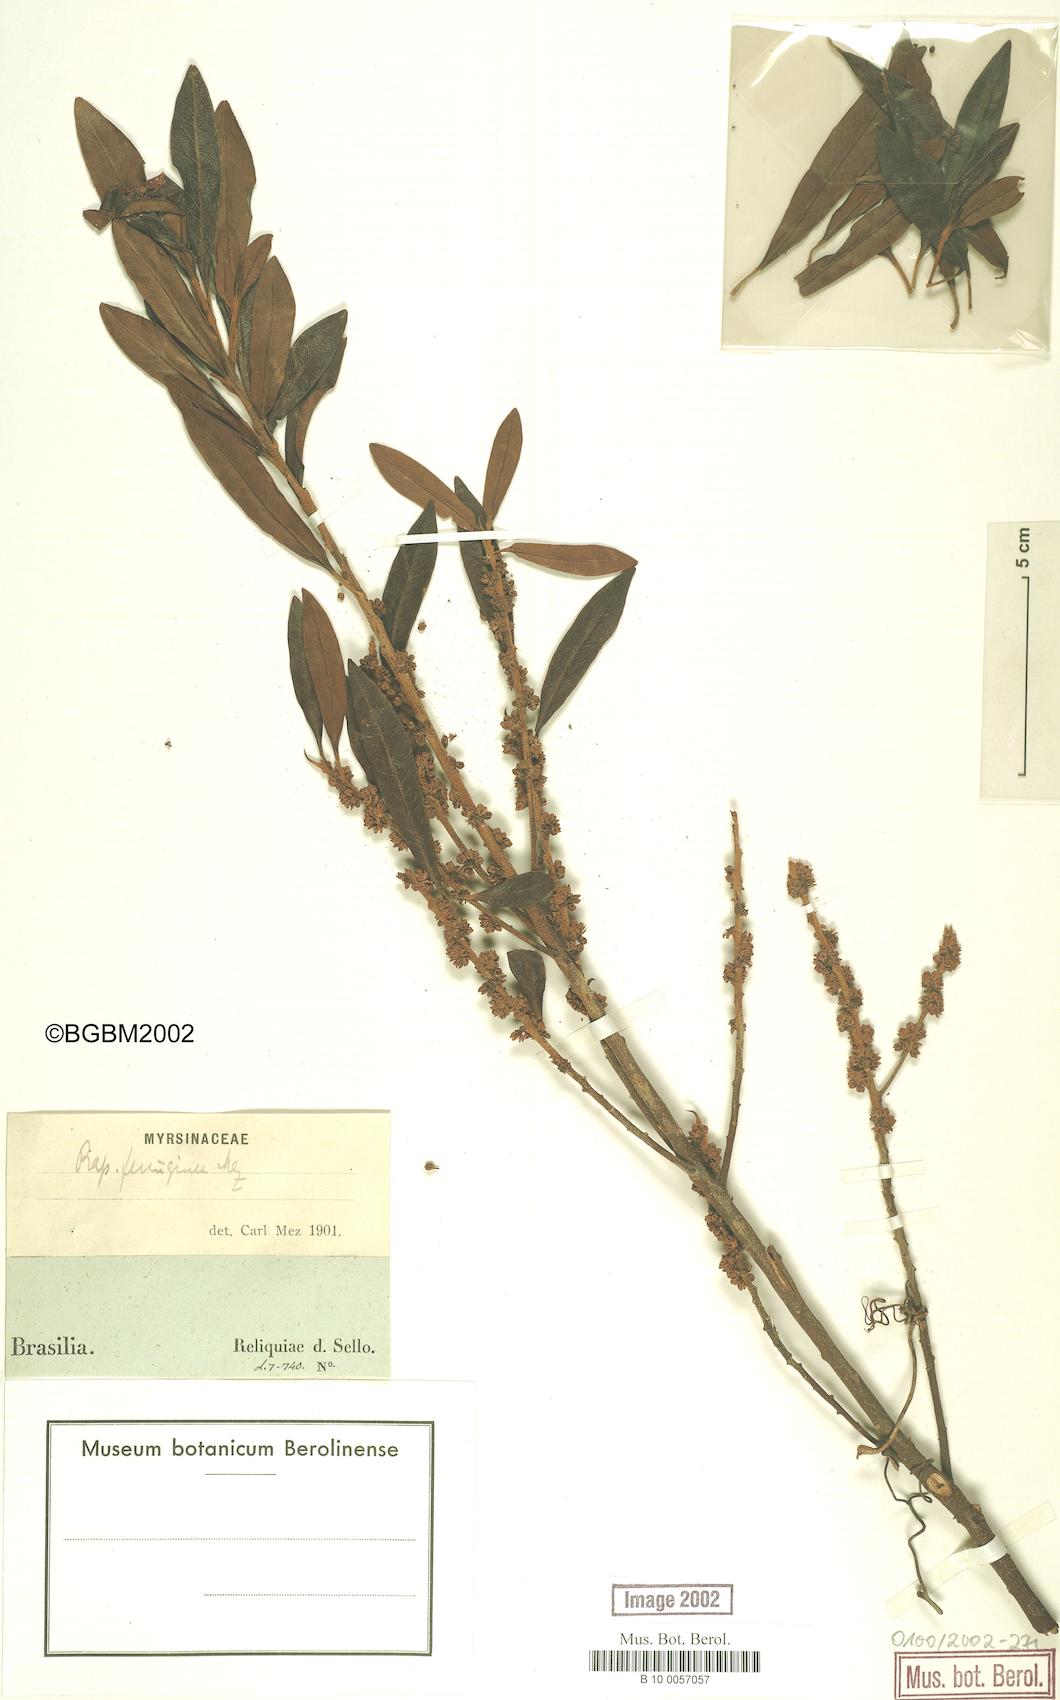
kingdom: Plantae
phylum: Tracheophyta
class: Magnoliopsida
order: Ericales
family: Primulaceae
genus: Myrsine
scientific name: Myrsine coriacea
